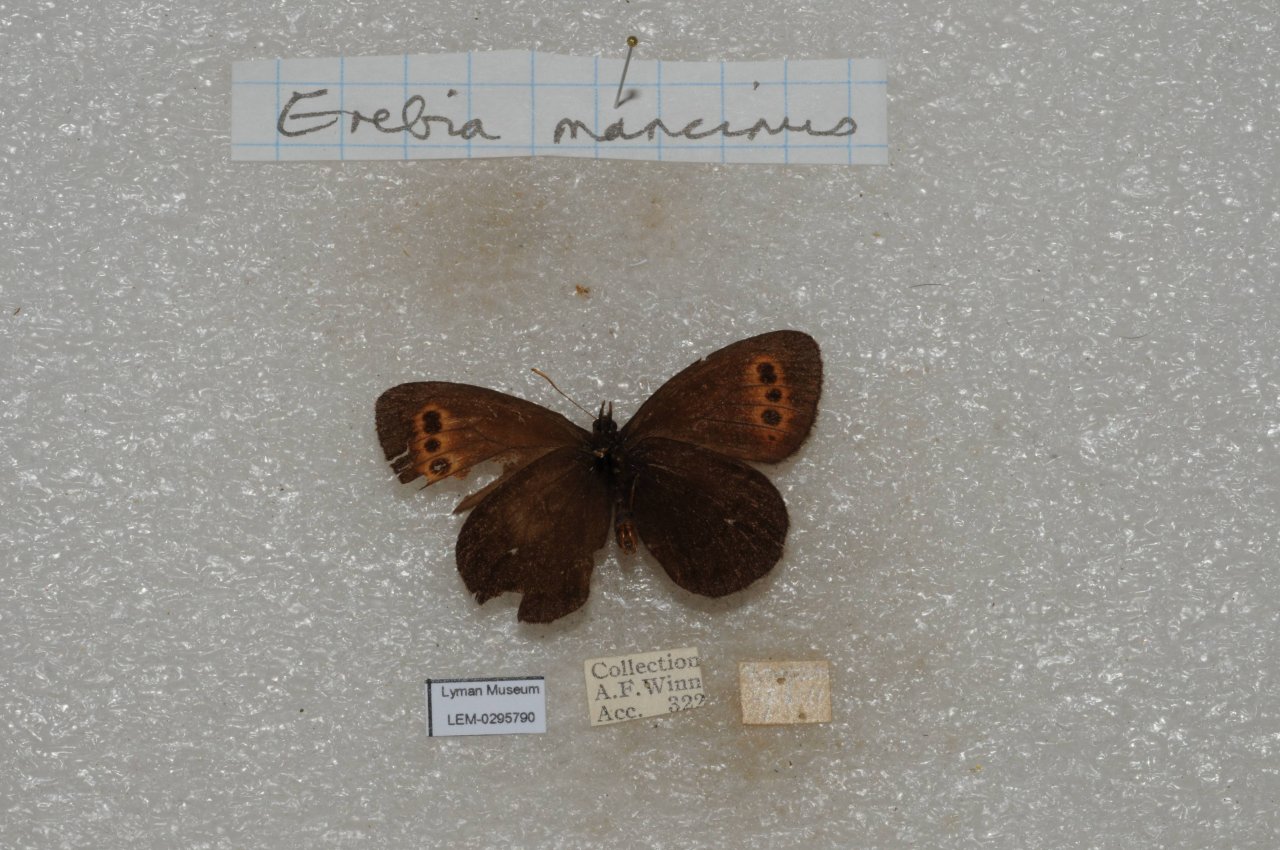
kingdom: Animalia
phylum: Arthropoda
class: Insecta
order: Lepidoptera
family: Nymphalidae
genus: Erebia
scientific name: Erebia disa
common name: Taiga Alpine
